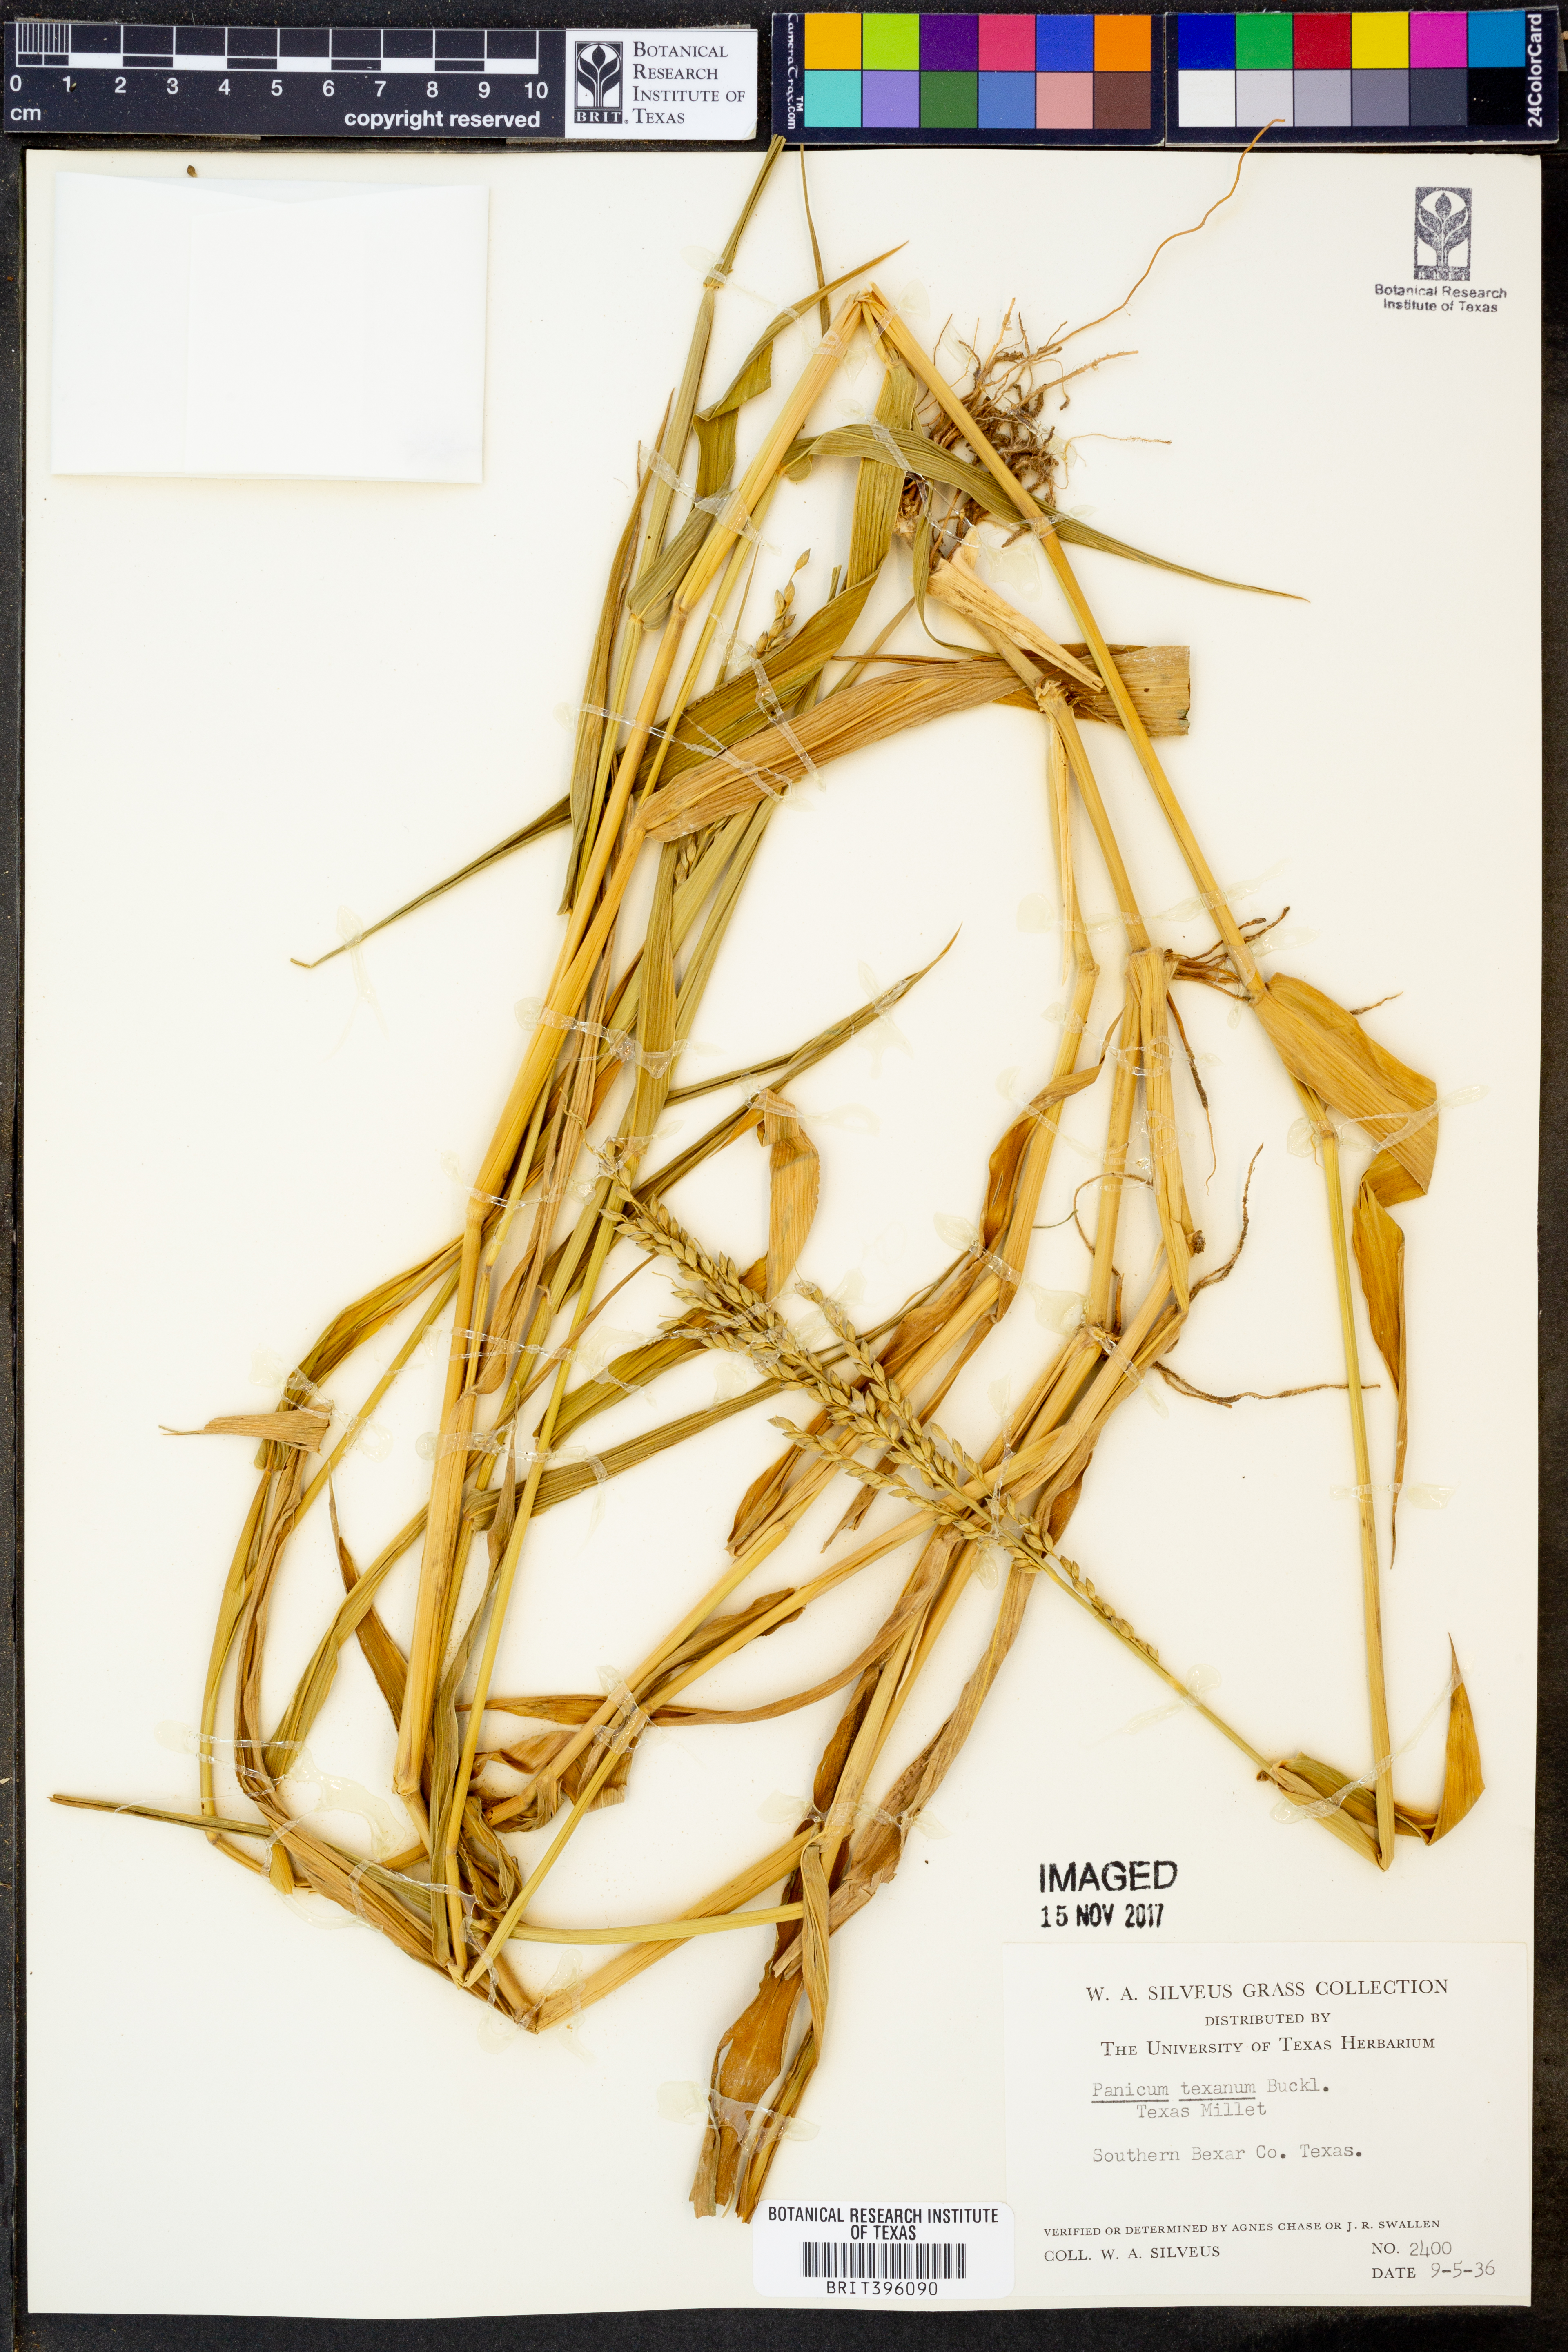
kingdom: Plantae
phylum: Tracheophyta
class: Liliopsida
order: Poales
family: Poaceae
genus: Urochloa
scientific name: Urochloa texana
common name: Texas millet
